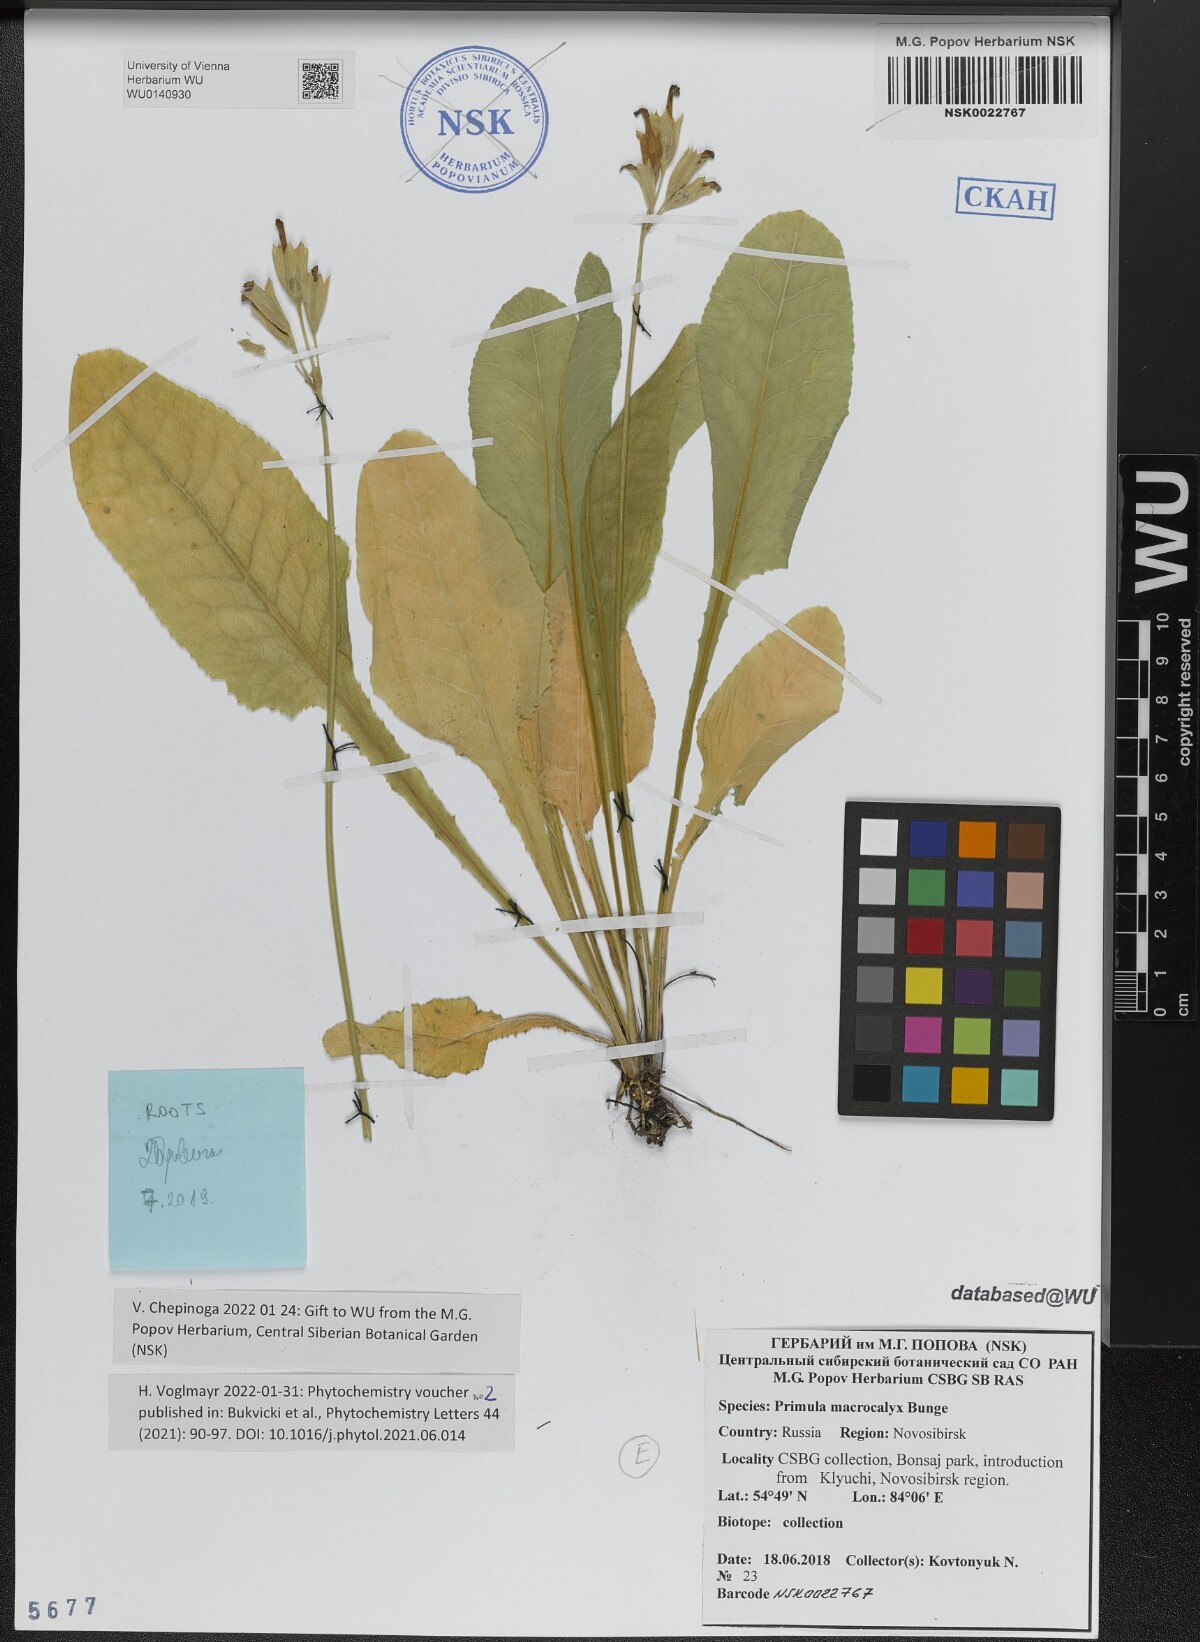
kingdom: Plantae
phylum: Tracheophyta
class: Magnoliopsida
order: Ericales
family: Primulaceae
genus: Primula
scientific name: Primula veris
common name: Cowslip
